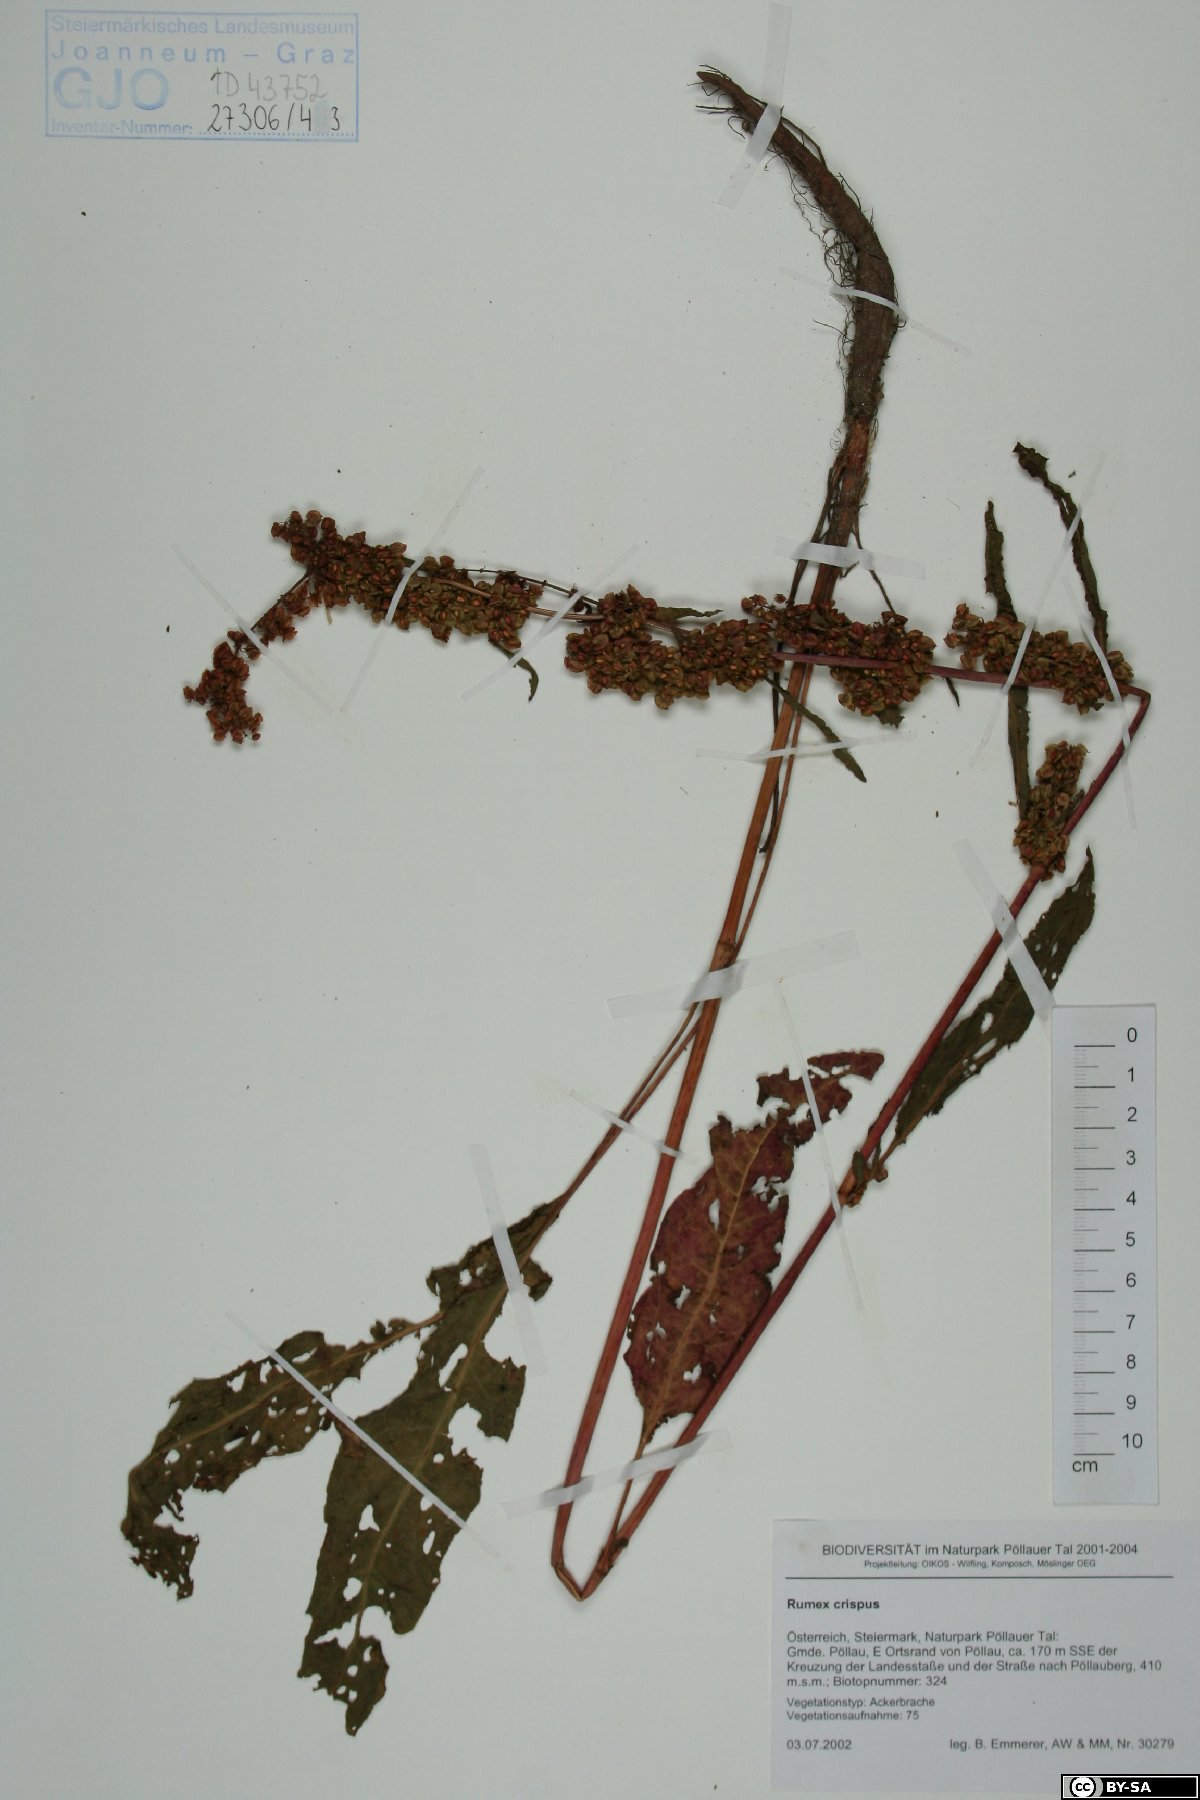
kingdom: Plantae
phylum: Tracheophyta
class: Magnoliopsida
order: Caryophyllales
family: Polygonaceae
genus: Rumex
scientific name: Rumex crispus
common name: Curled dock
